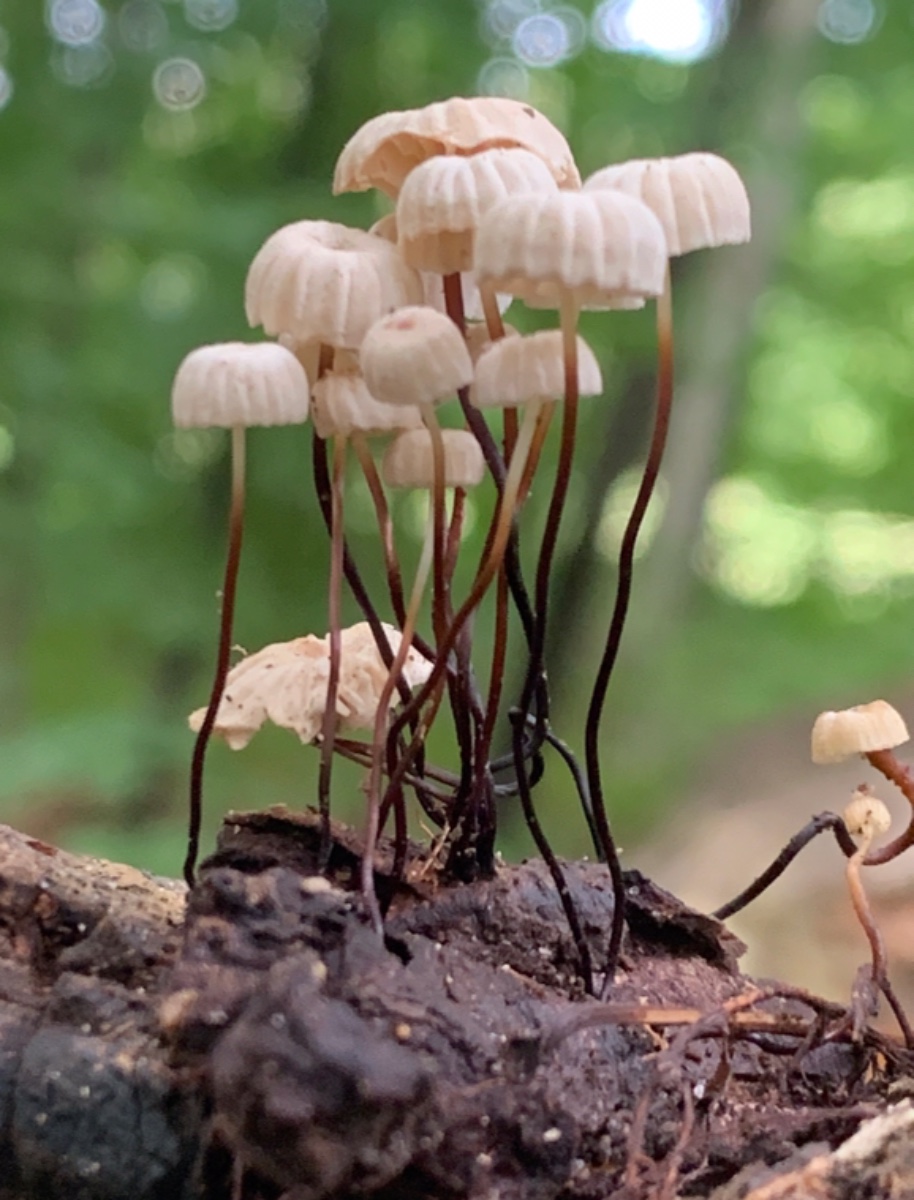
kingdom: Fungi
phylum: Basidiomycota
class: Agaricomycetes
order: Agaricales
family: Marasmiaceae
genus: Marasmius
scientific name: Marasmius rotula
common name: hjul-bruskhat
